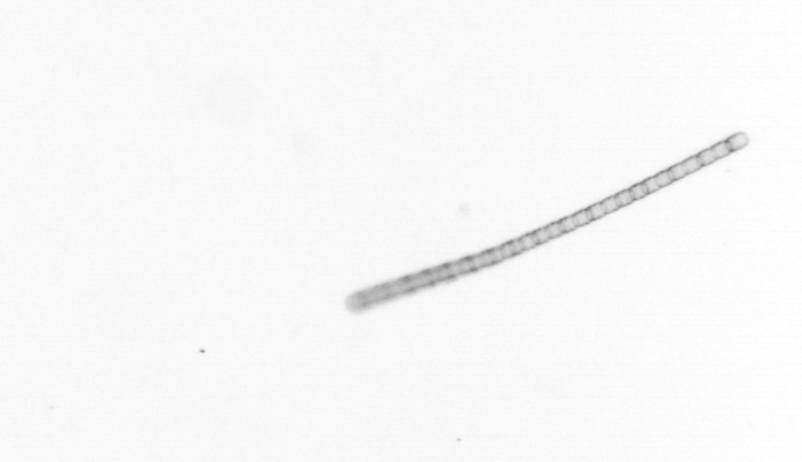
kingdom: Chromista
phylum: Ochrophyta
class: Bacillariophyceae
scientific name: Bacillariophyceae
